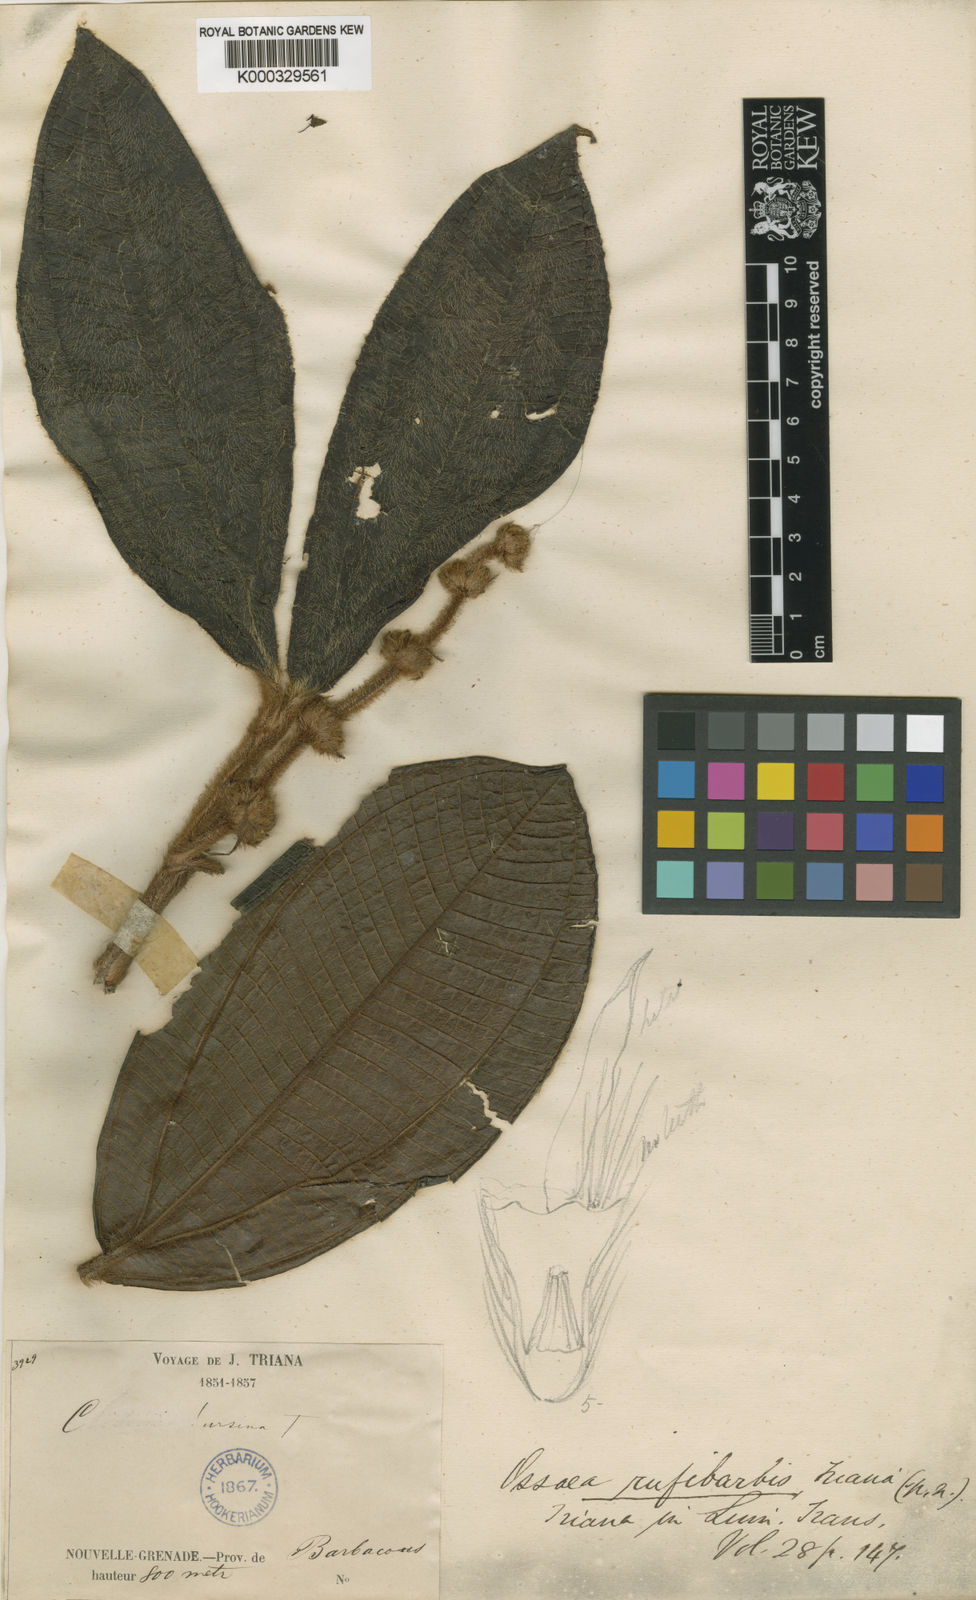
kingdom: Plantae
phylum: Tracheophyta
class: Magnoliopsida
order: Myrtales
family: Melastomataceae
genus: Miconia
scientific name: Miconia rufibarbis
